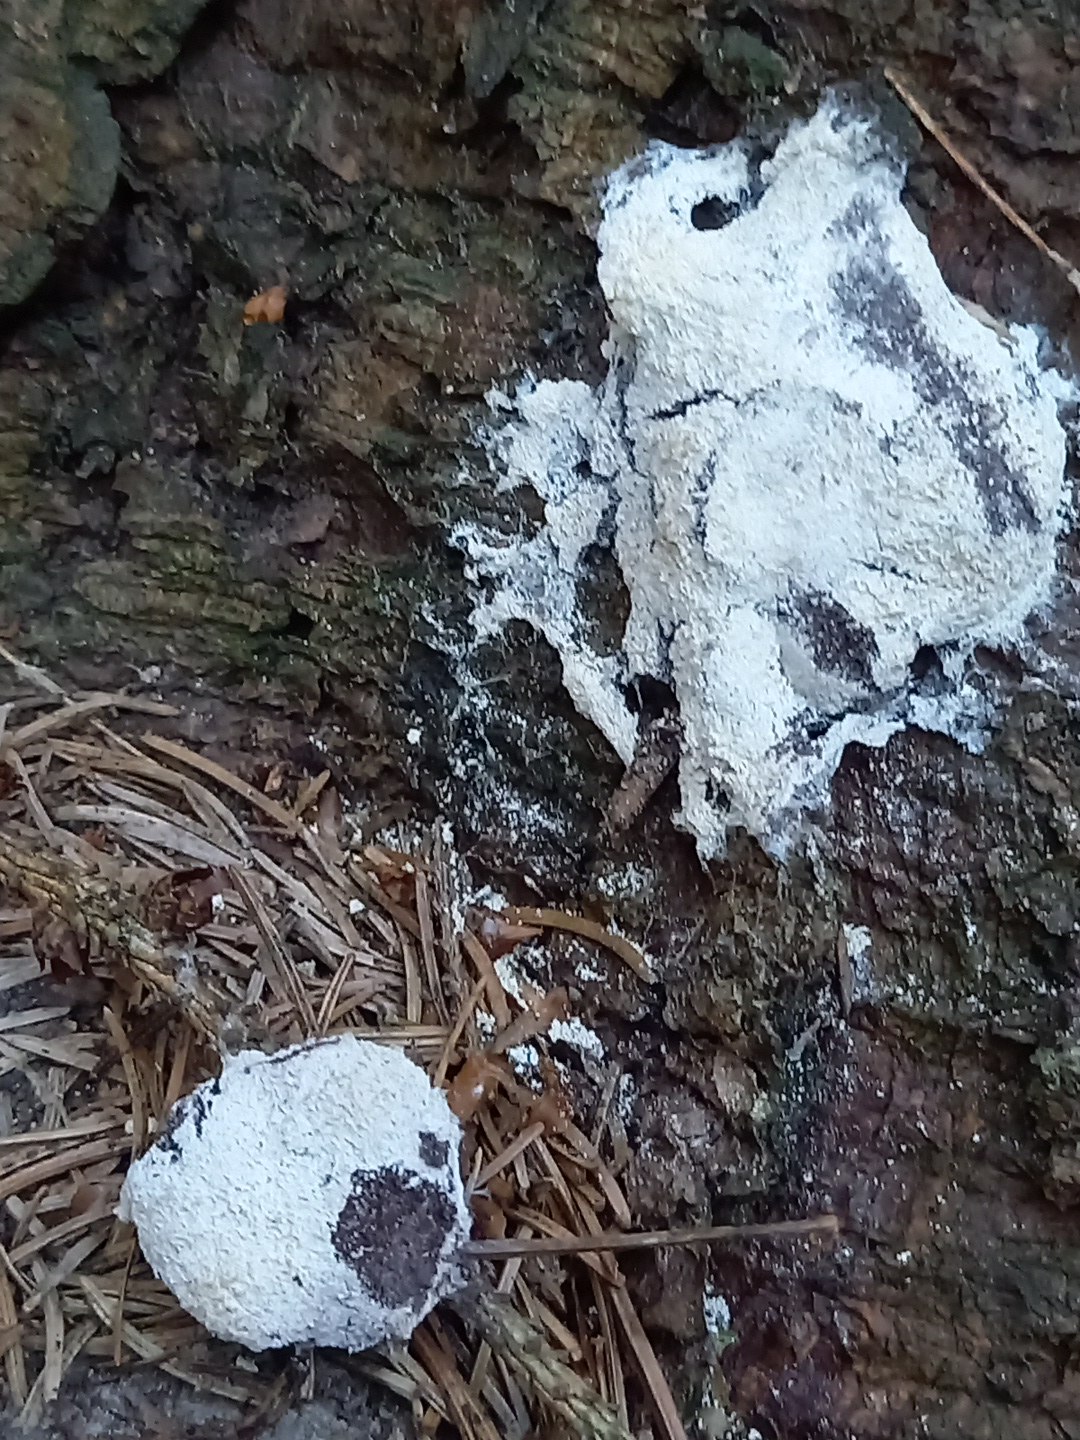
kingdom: Protozoa
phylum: Mycetozoa
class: Myxomycetes
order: Physarales
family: Physaraceae
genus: Fuligo
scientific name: Fuligo septica
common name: gul troldsmør
